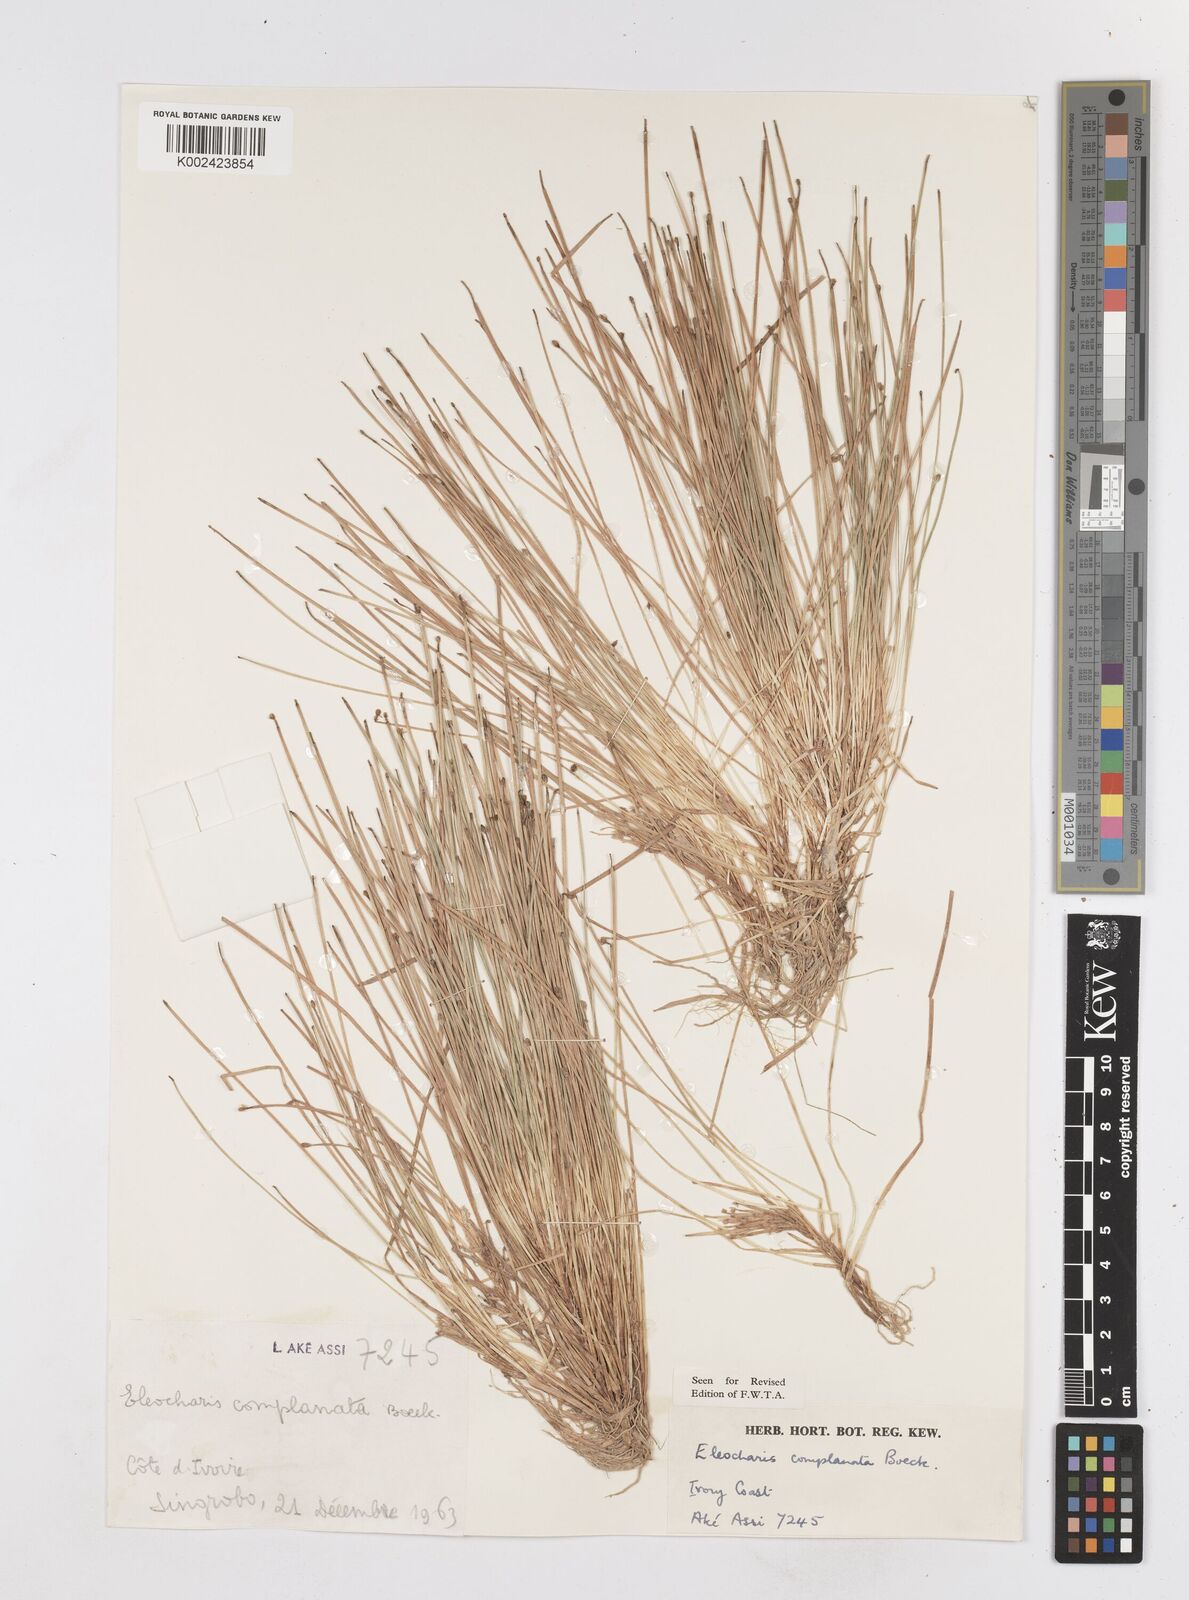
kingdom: Plantae
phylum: Tracheophyta
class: Liliopsida
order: Poales
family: Cyperaceae
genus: Eleocharis
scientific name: Eleocharis complanata
